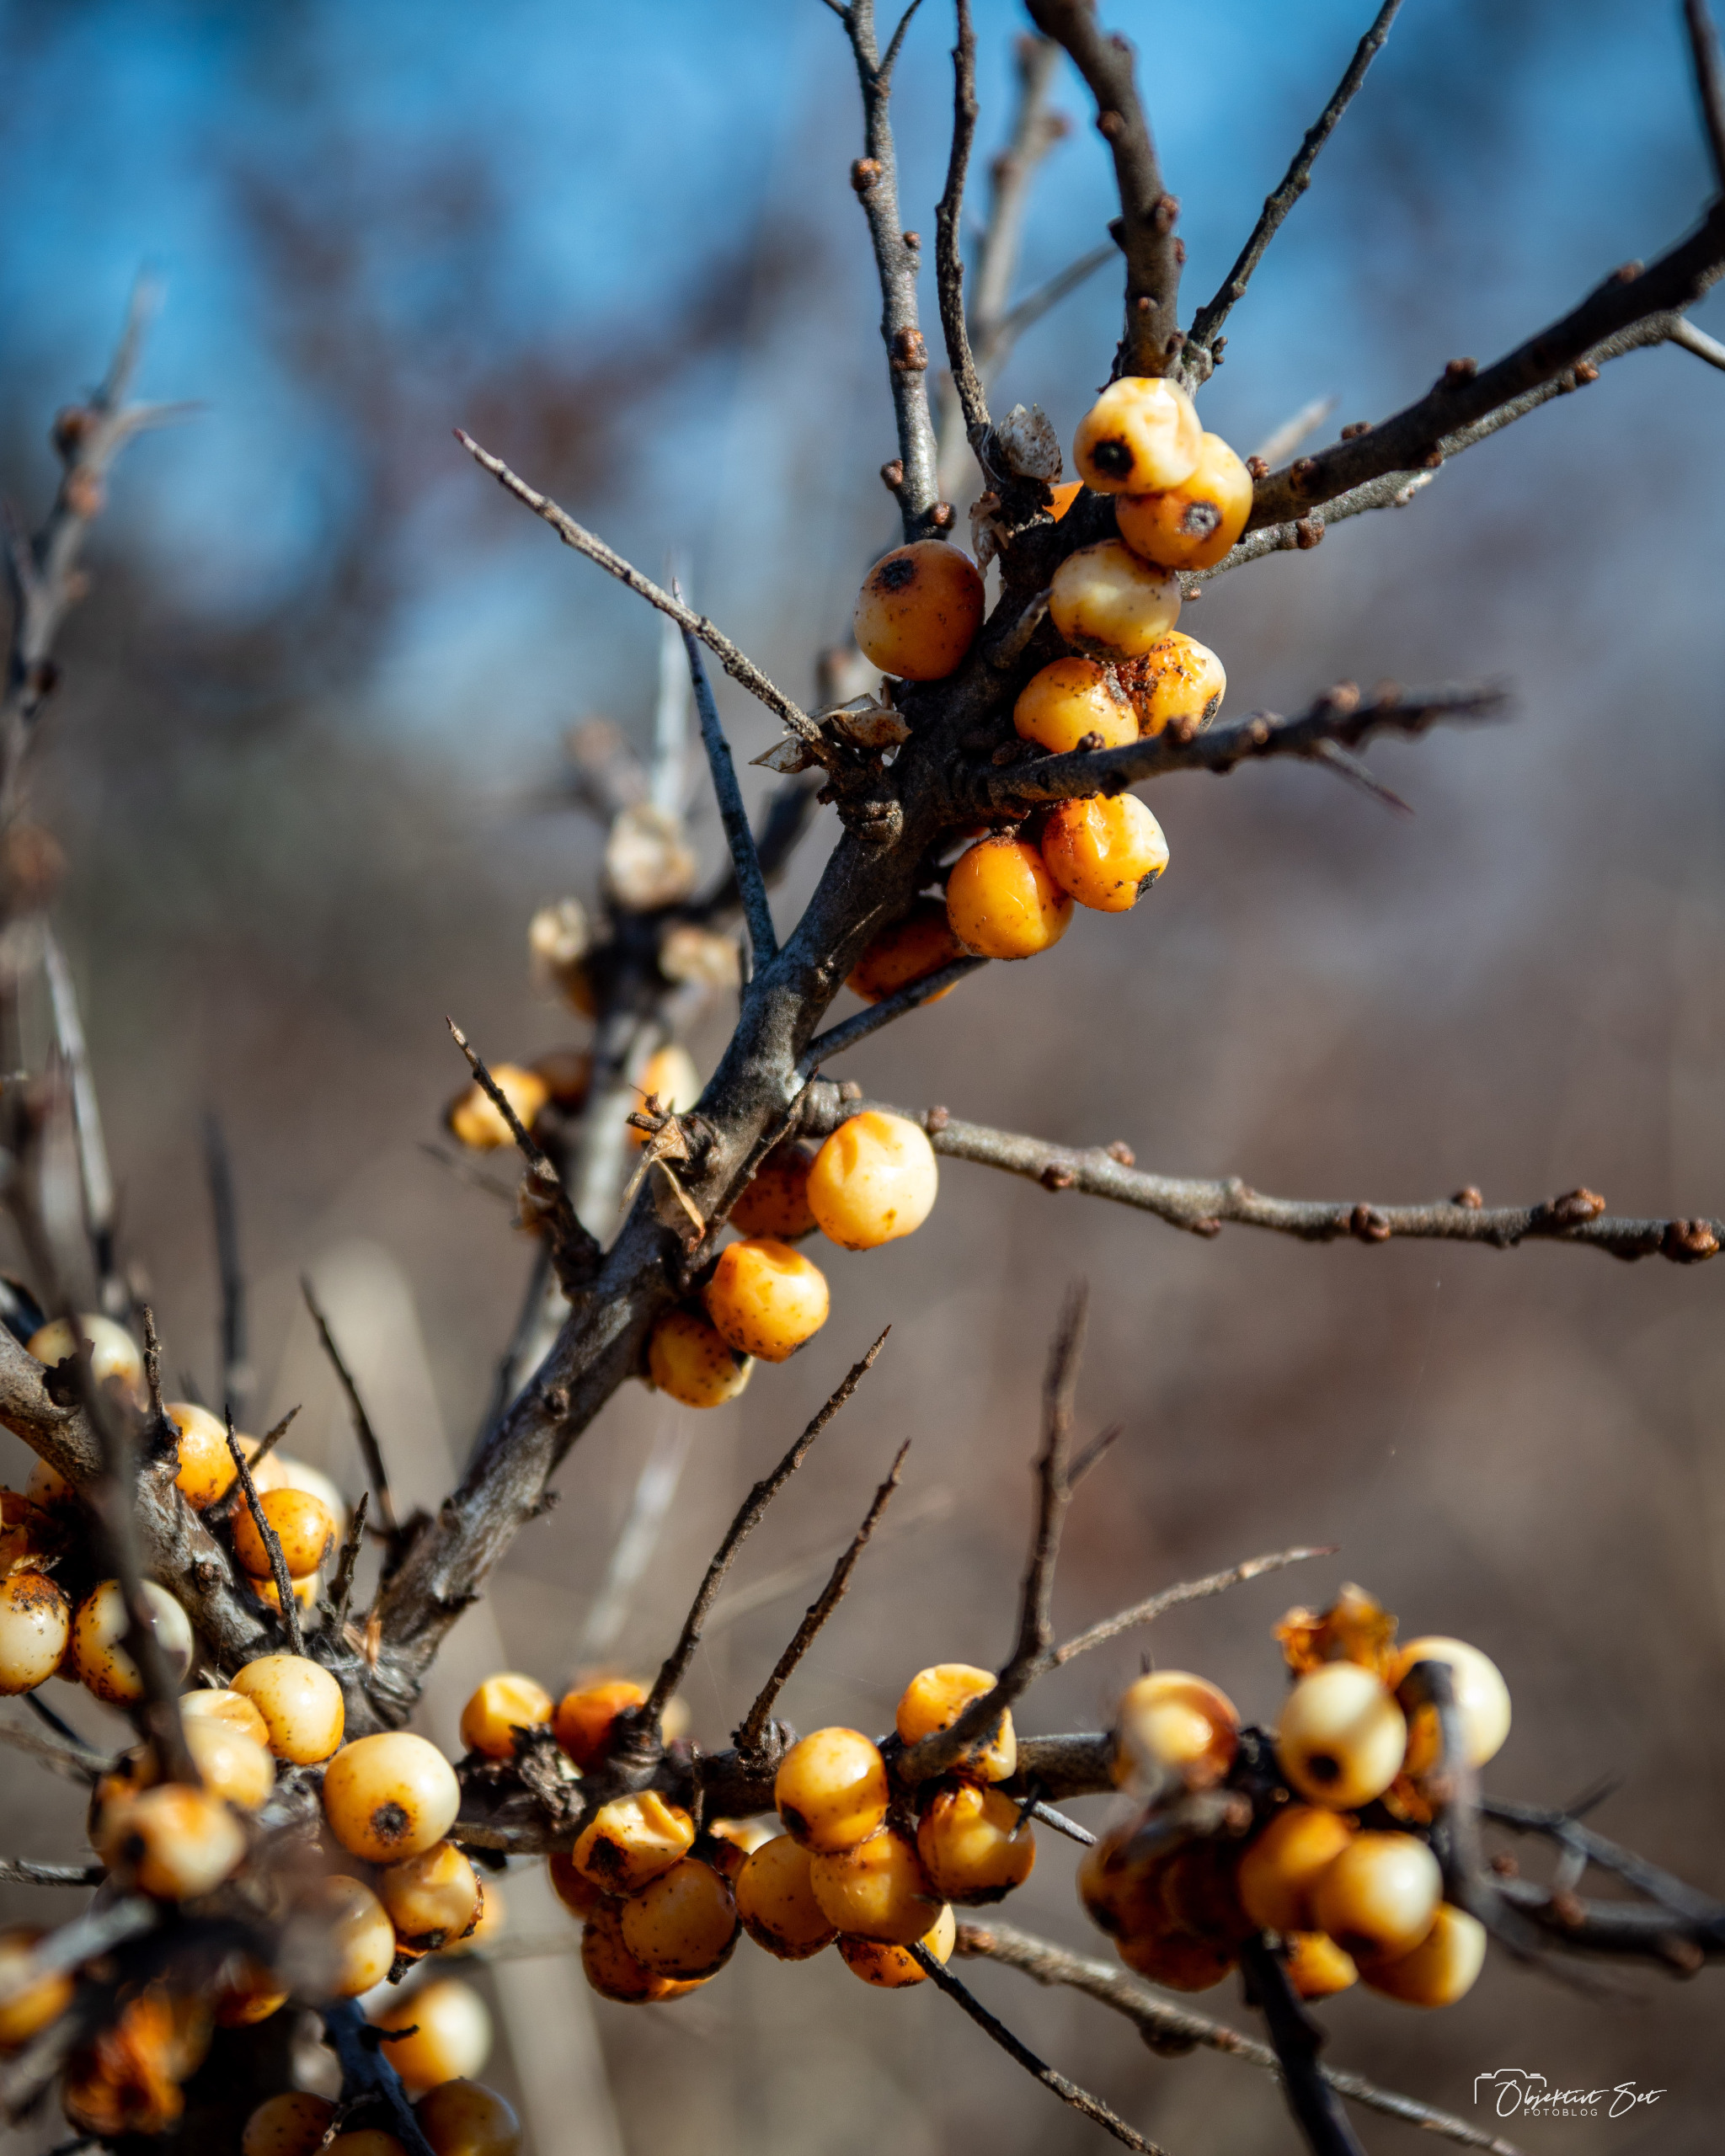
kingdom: Plantae
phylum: Tracheophyta
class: Magnoliopsida
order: Rosales
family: Elaeagnaceae
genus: Hippophae
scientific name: Hippophae rhamnoides
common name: Havtorn
